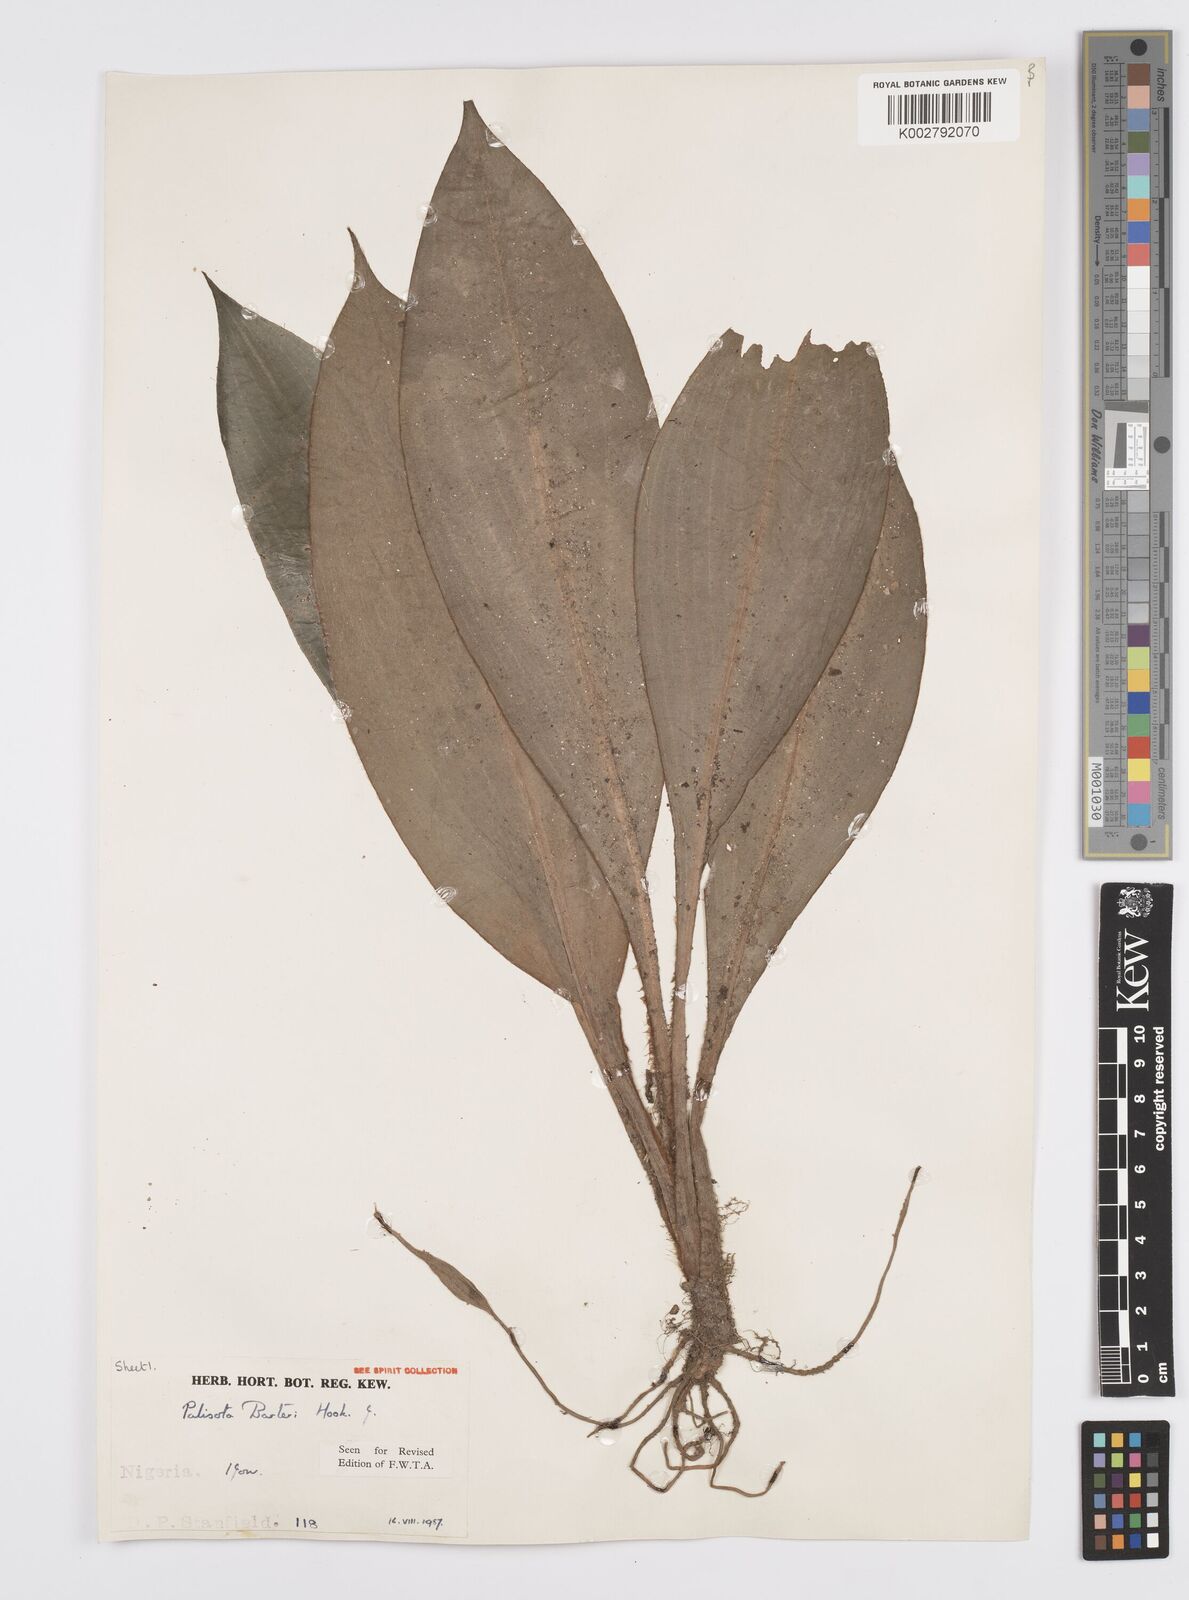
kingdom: Plantae
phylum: Tracheophyta
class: Liliopsida
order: Commelinales
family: Commelinaceae
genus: Palisota
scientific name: Palisota barteri
